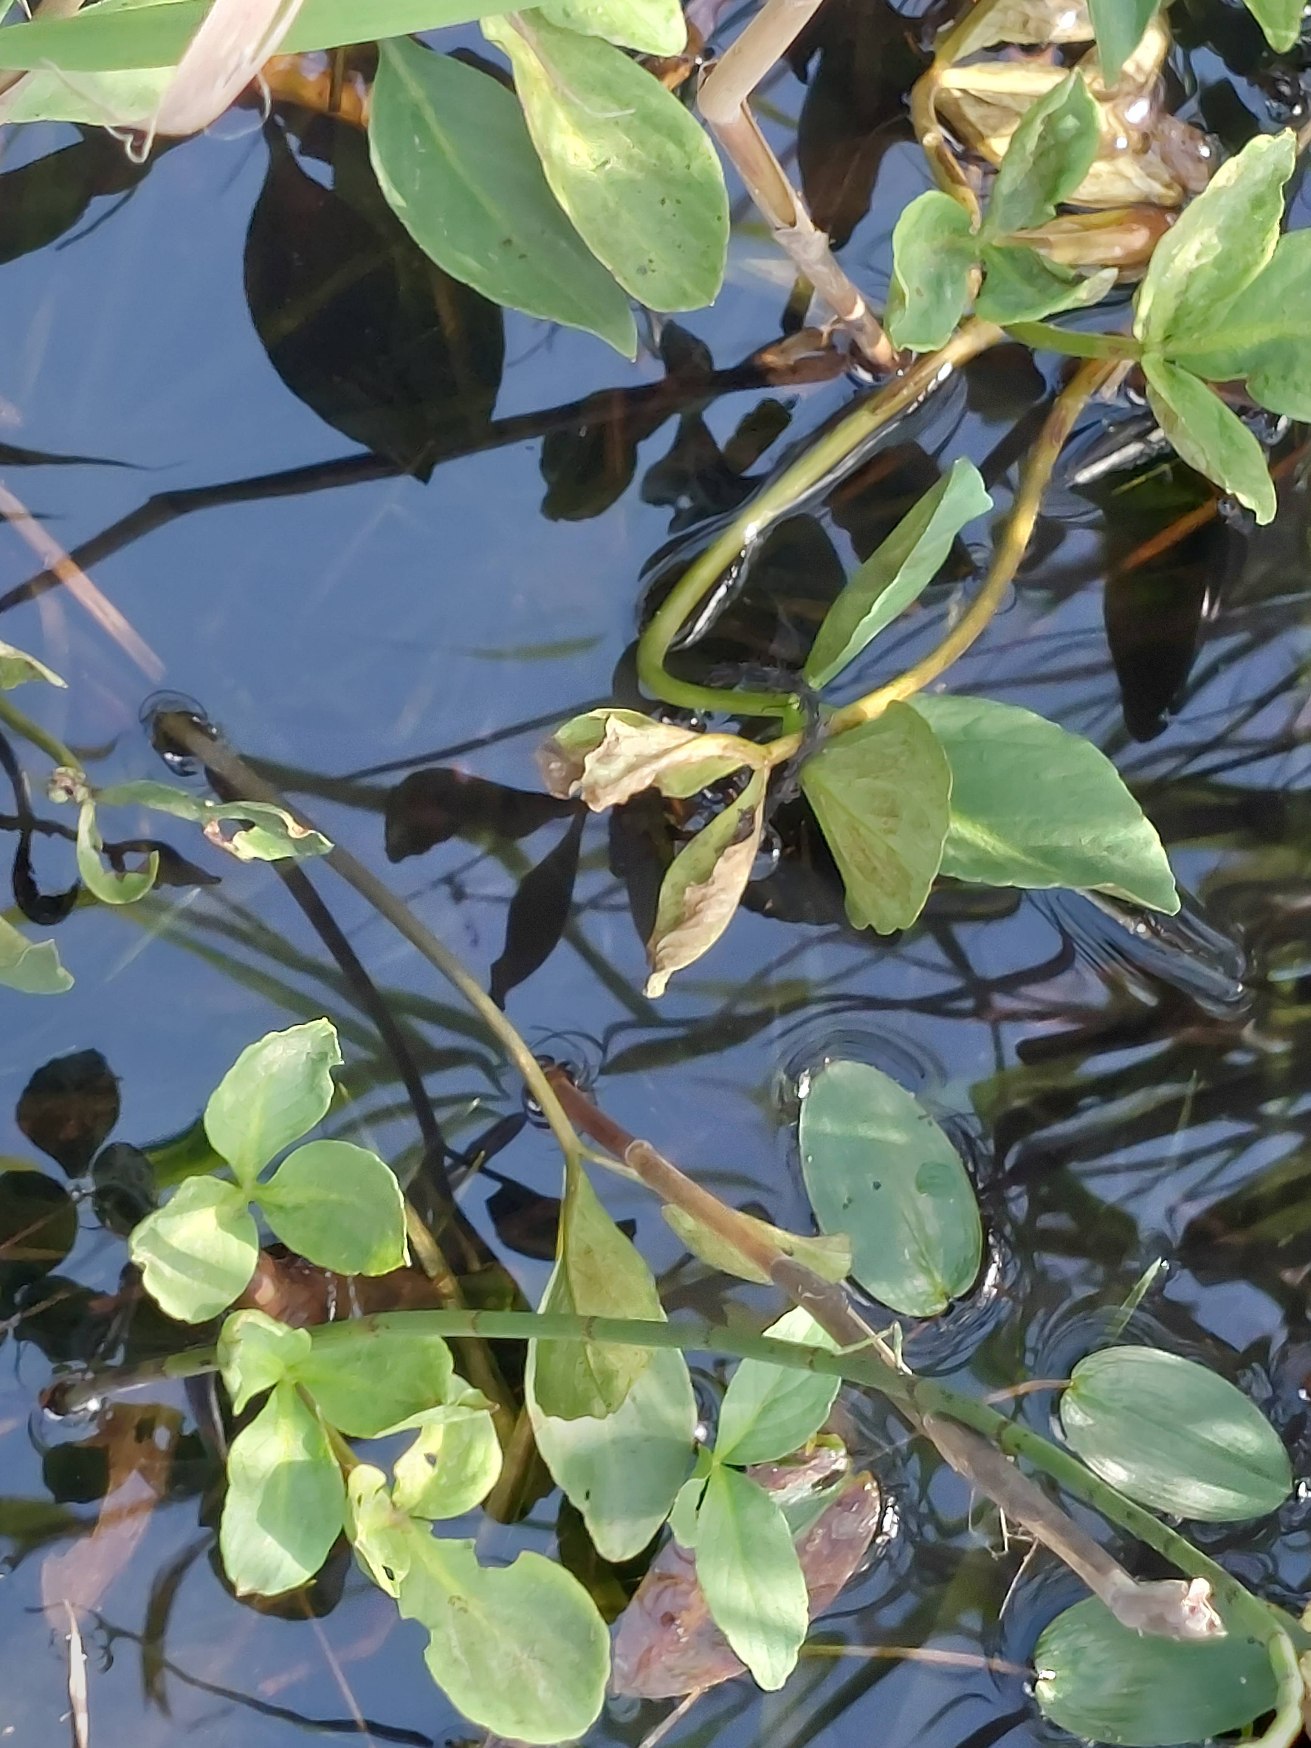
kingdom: Plantae
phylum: Tracheophyta
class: Magnoliopsida
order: Asterales
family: Menyanthaceae
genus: Menyanthes
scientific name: Menyanthes trifoliata
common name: Bukkeblad
